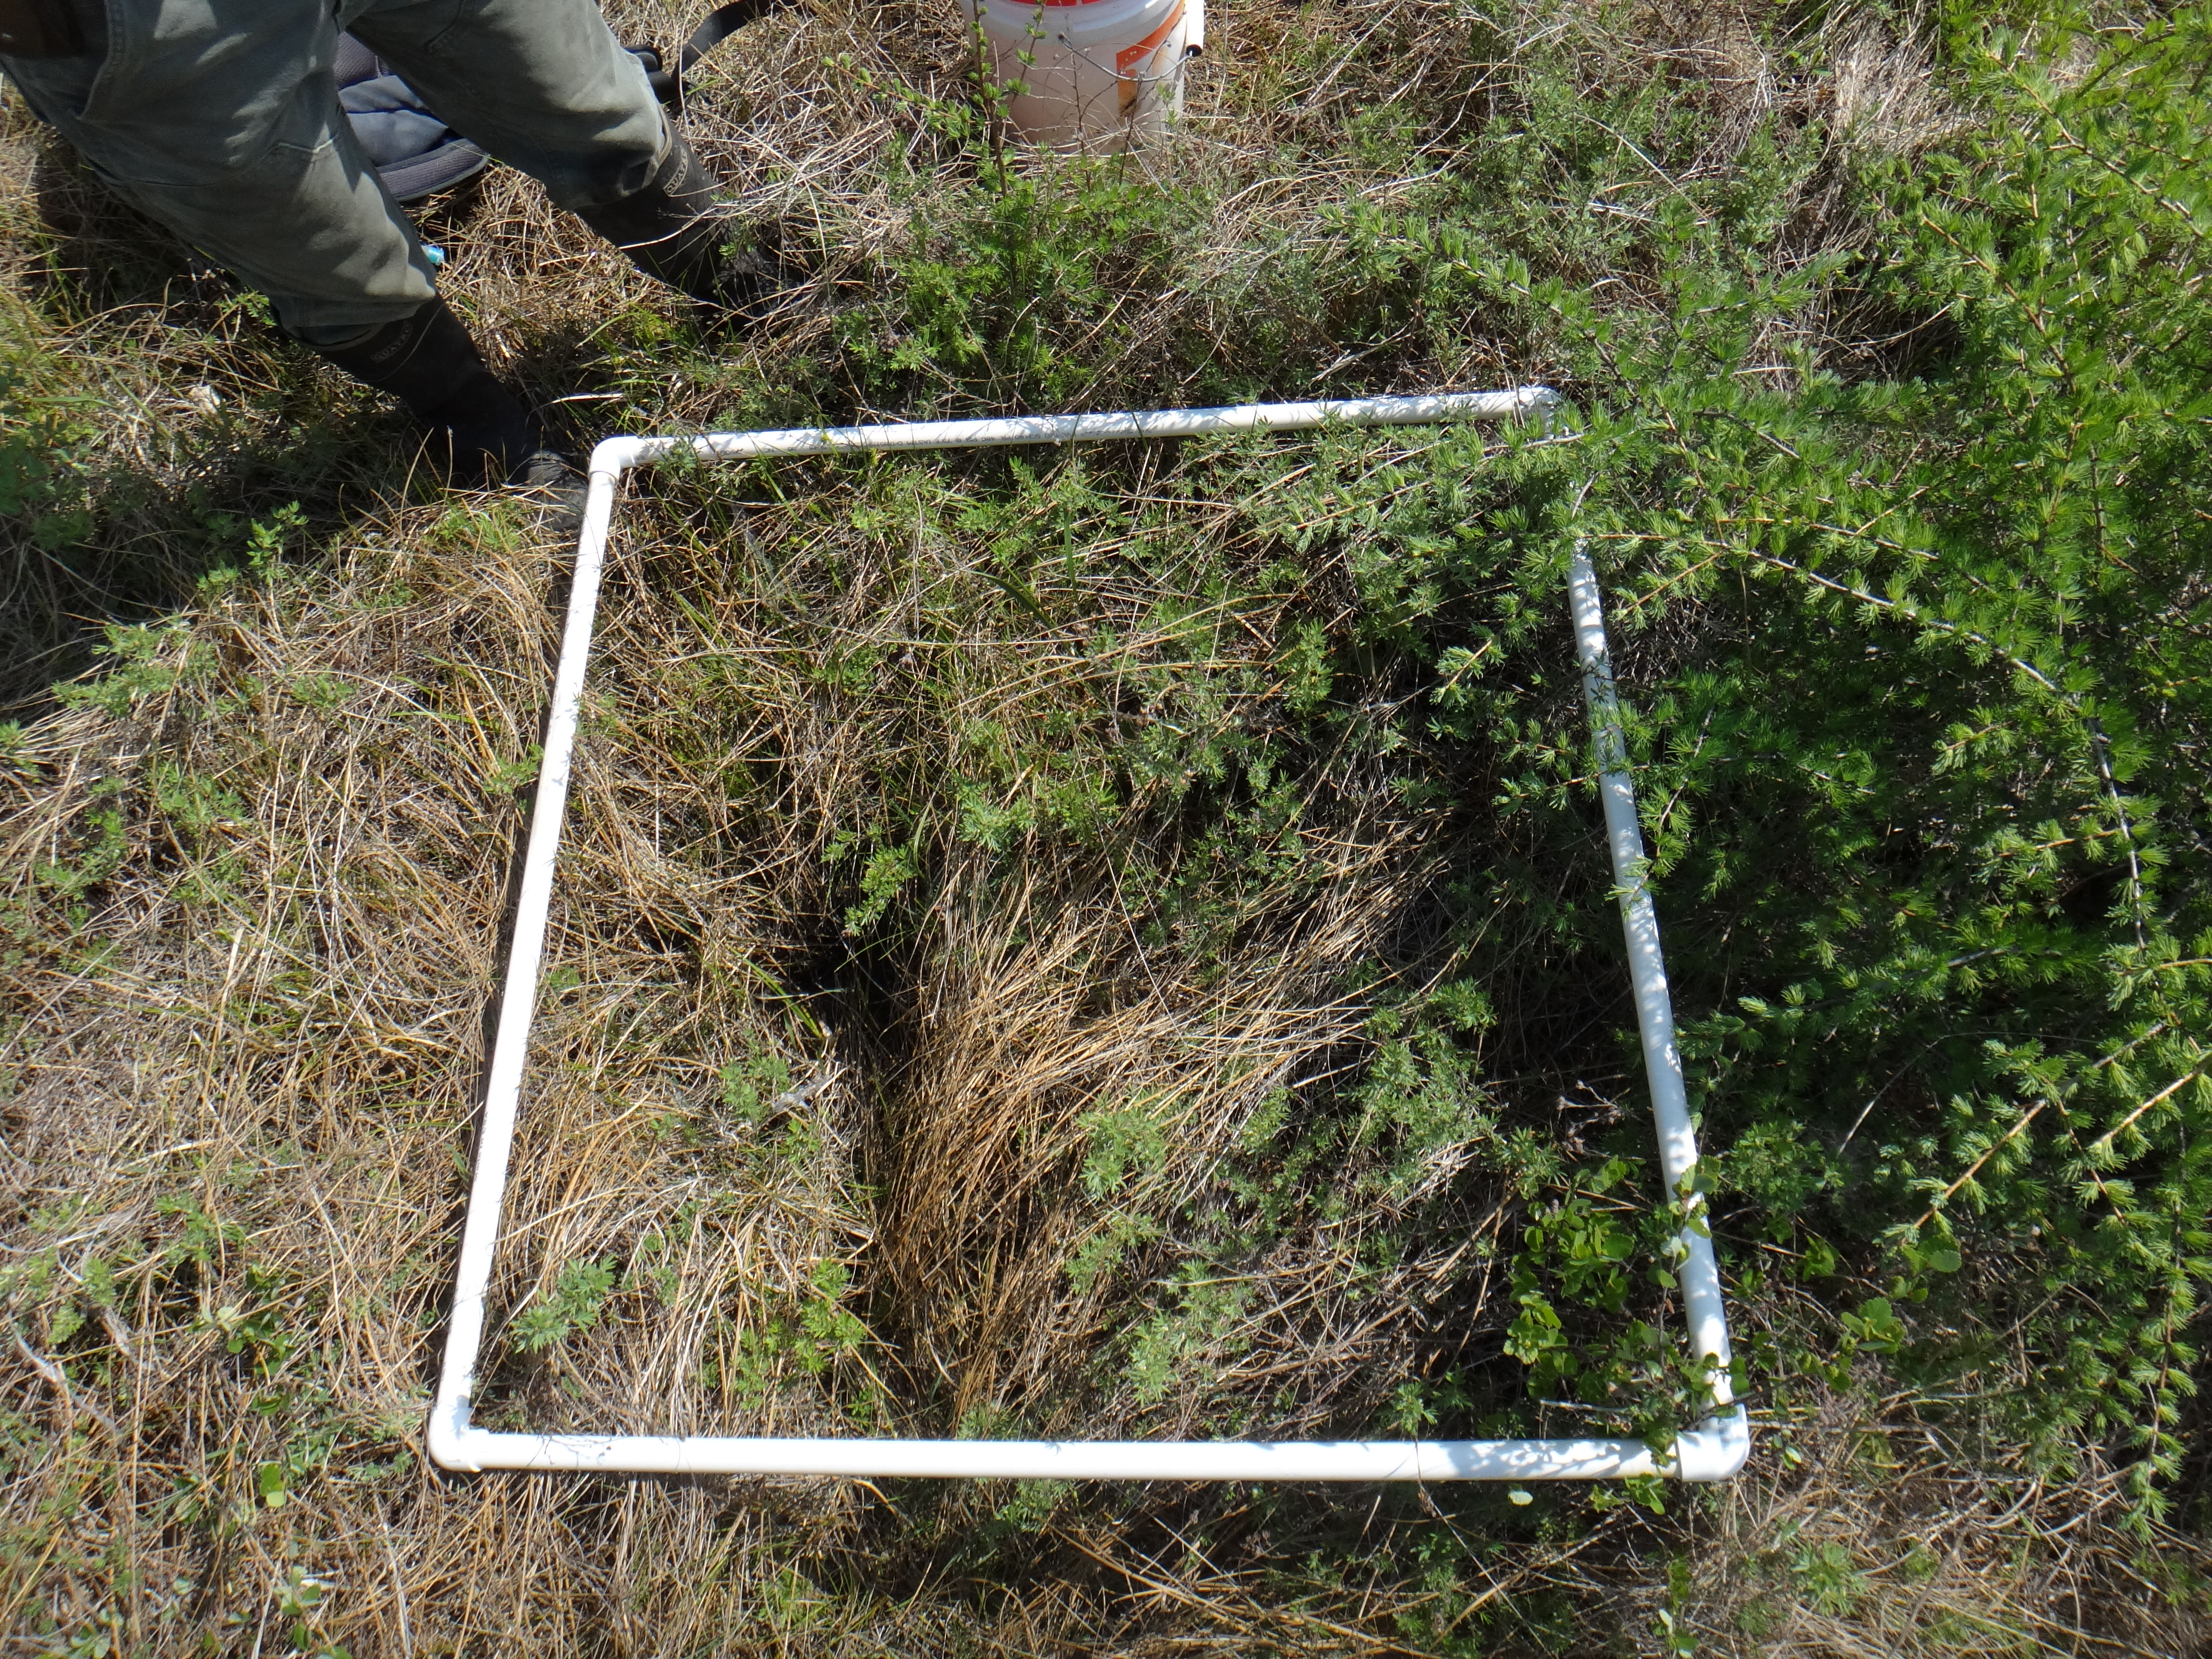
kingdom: Plantae
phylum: Tracheophyta
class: Magnoliopsida
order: Rosales
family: Rosaceae
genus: Dasiphora
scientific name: Dasiphora fruticosa
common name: Shrubby cinquefoil
